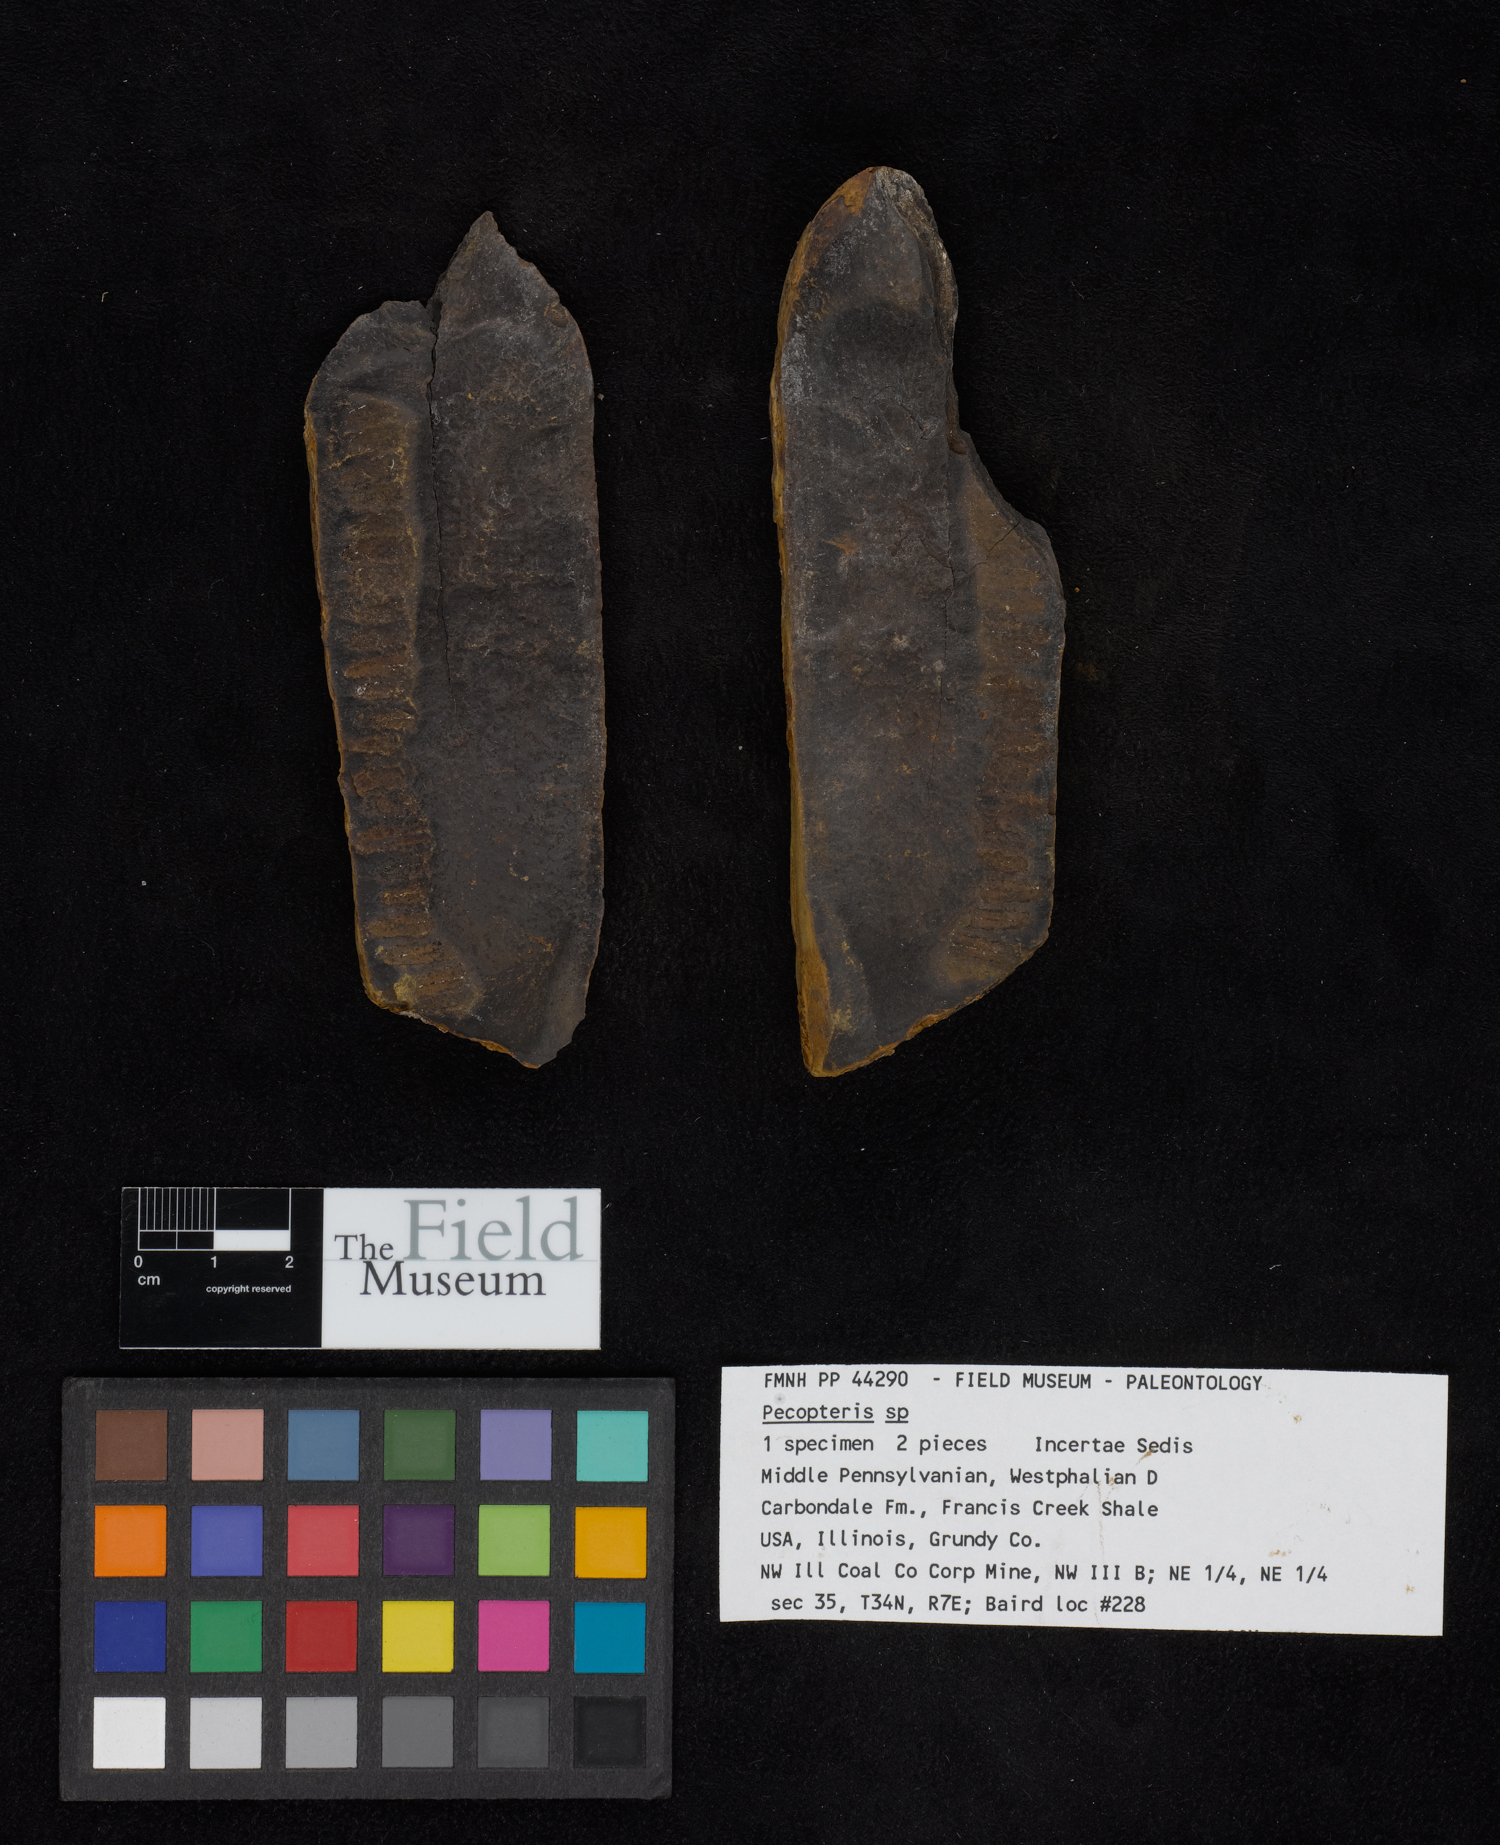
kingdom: Plantae
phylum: Tracheophyta
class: Polypodiopsida
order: Marattiales
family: Asterothecaceae
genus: Pecopteris
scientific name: Pecopteris
